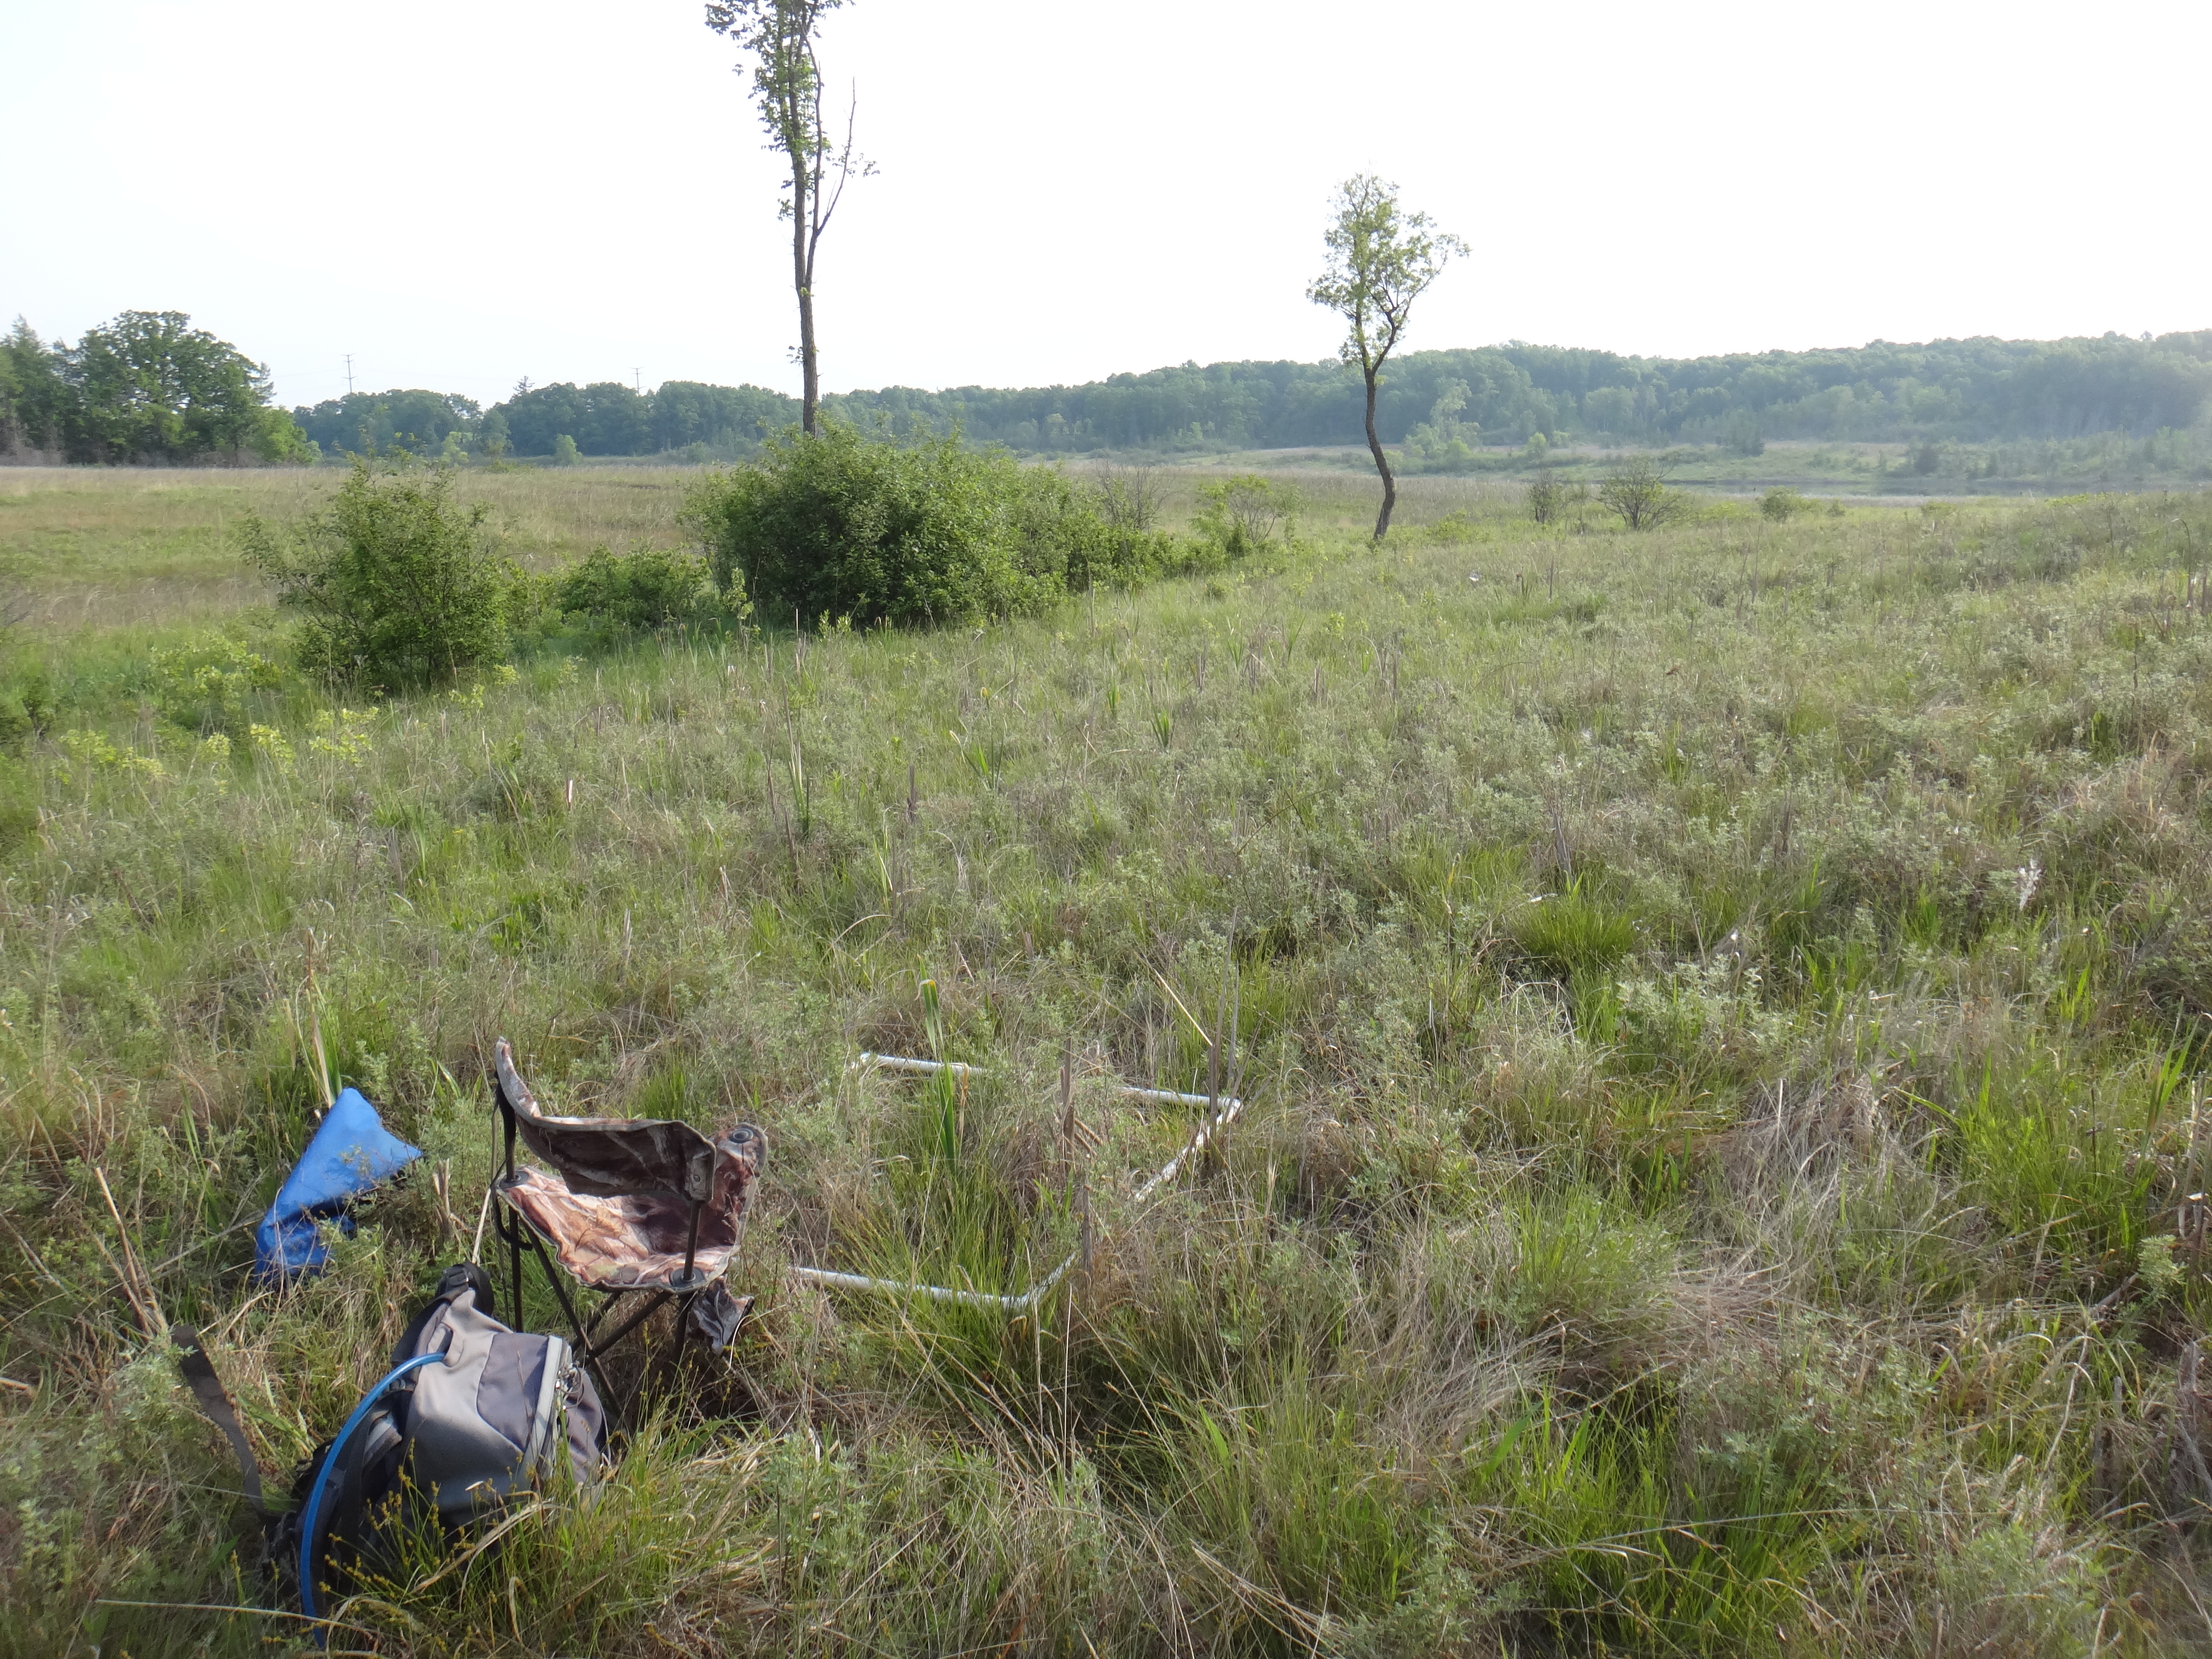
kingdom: Plantae
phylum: Tracheophyta
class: Liliopsida
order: Poales
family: Cyperaceae
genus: Carex
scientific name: Carex sterilis
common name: Dioecious sedge
